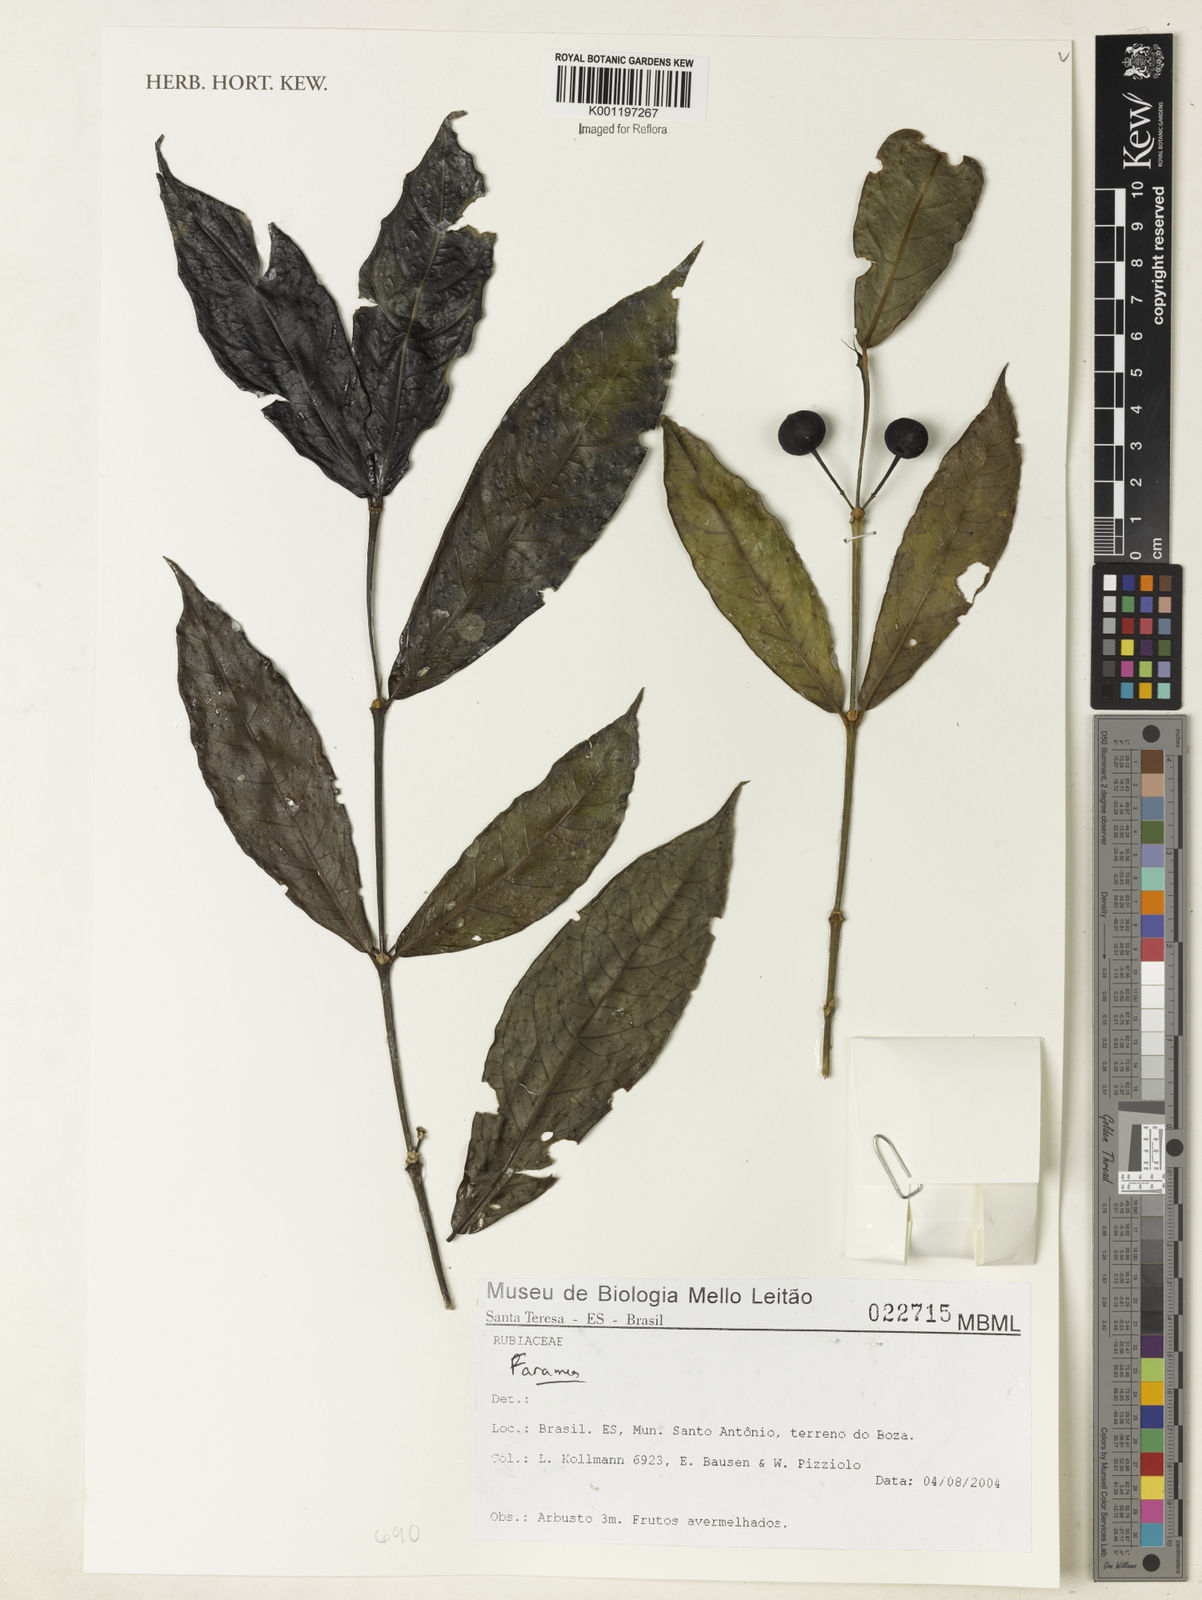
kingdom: Plantae
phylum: Tracheophyta
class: Magnoliopsida
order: Gentianales
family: Rubiaceae
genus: Faramea
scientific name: Faramea
